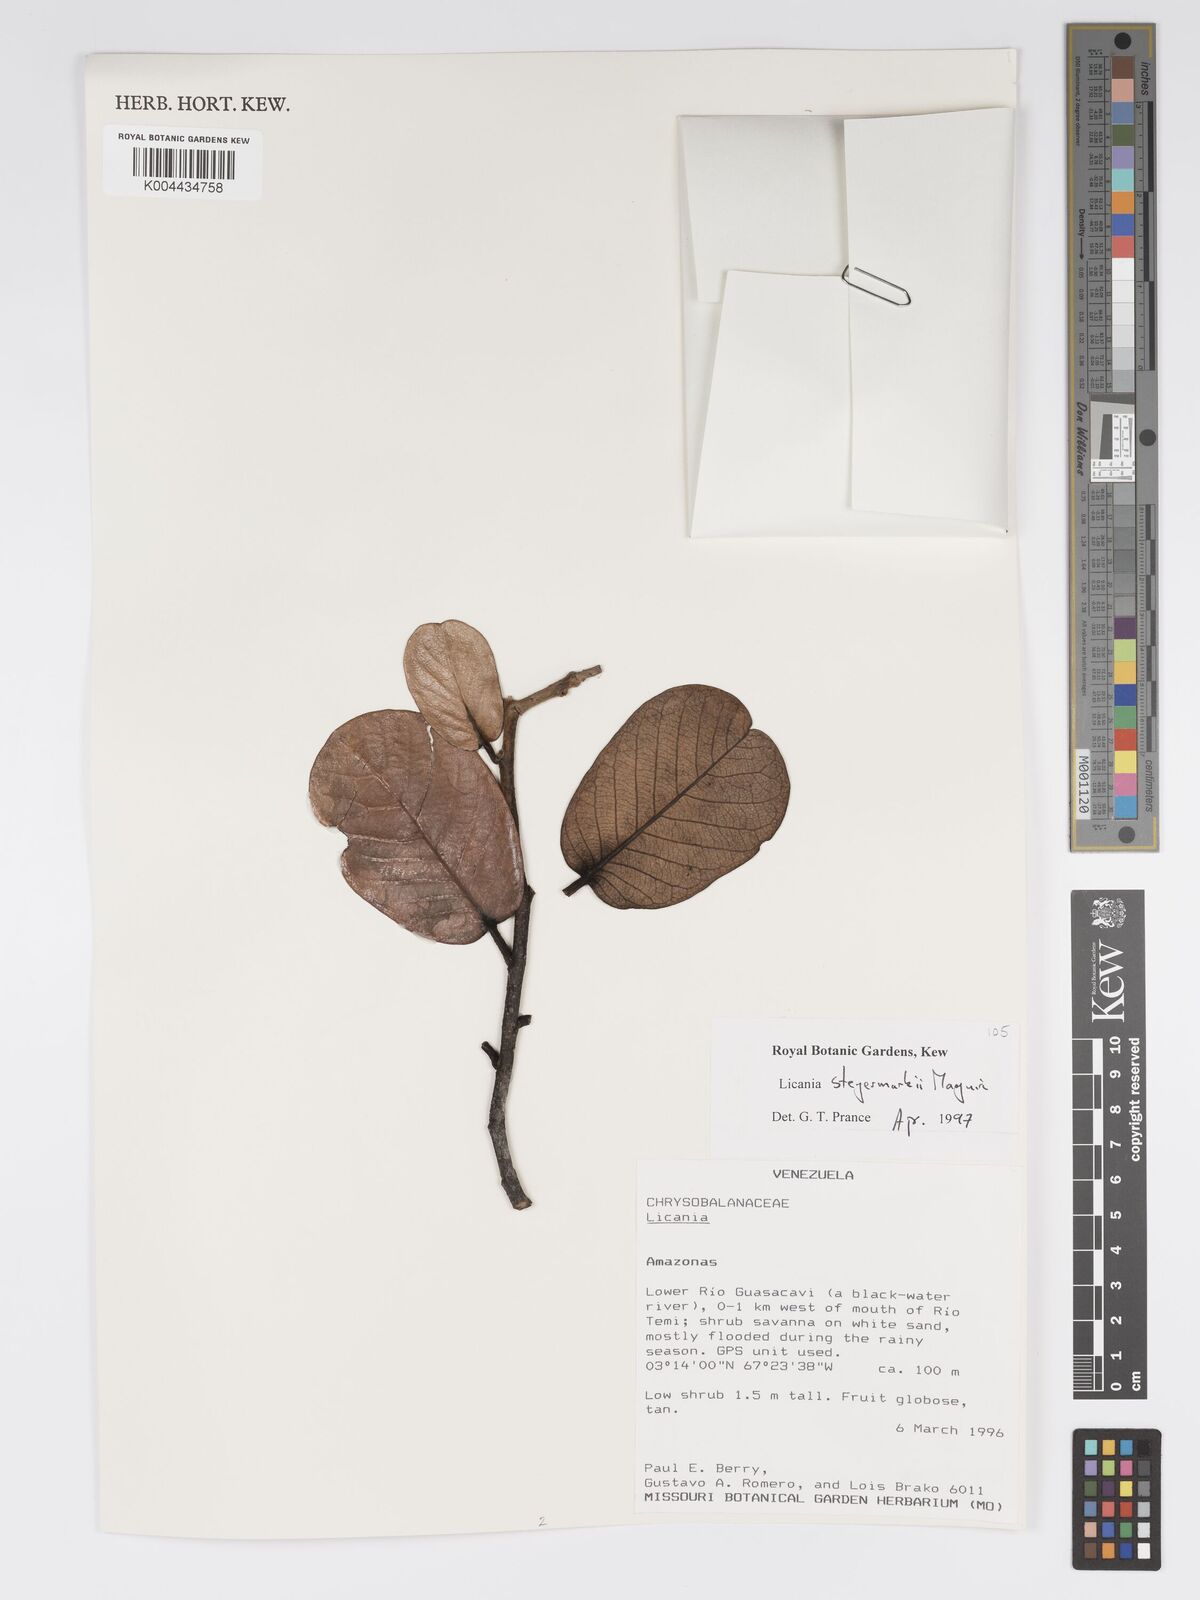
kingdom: Plantae
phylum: Tracheophyta
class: Magnoliopsida
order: Malpighiales
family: Chrysobalanaceae
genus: Licania
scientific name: Licania steyermarkii
